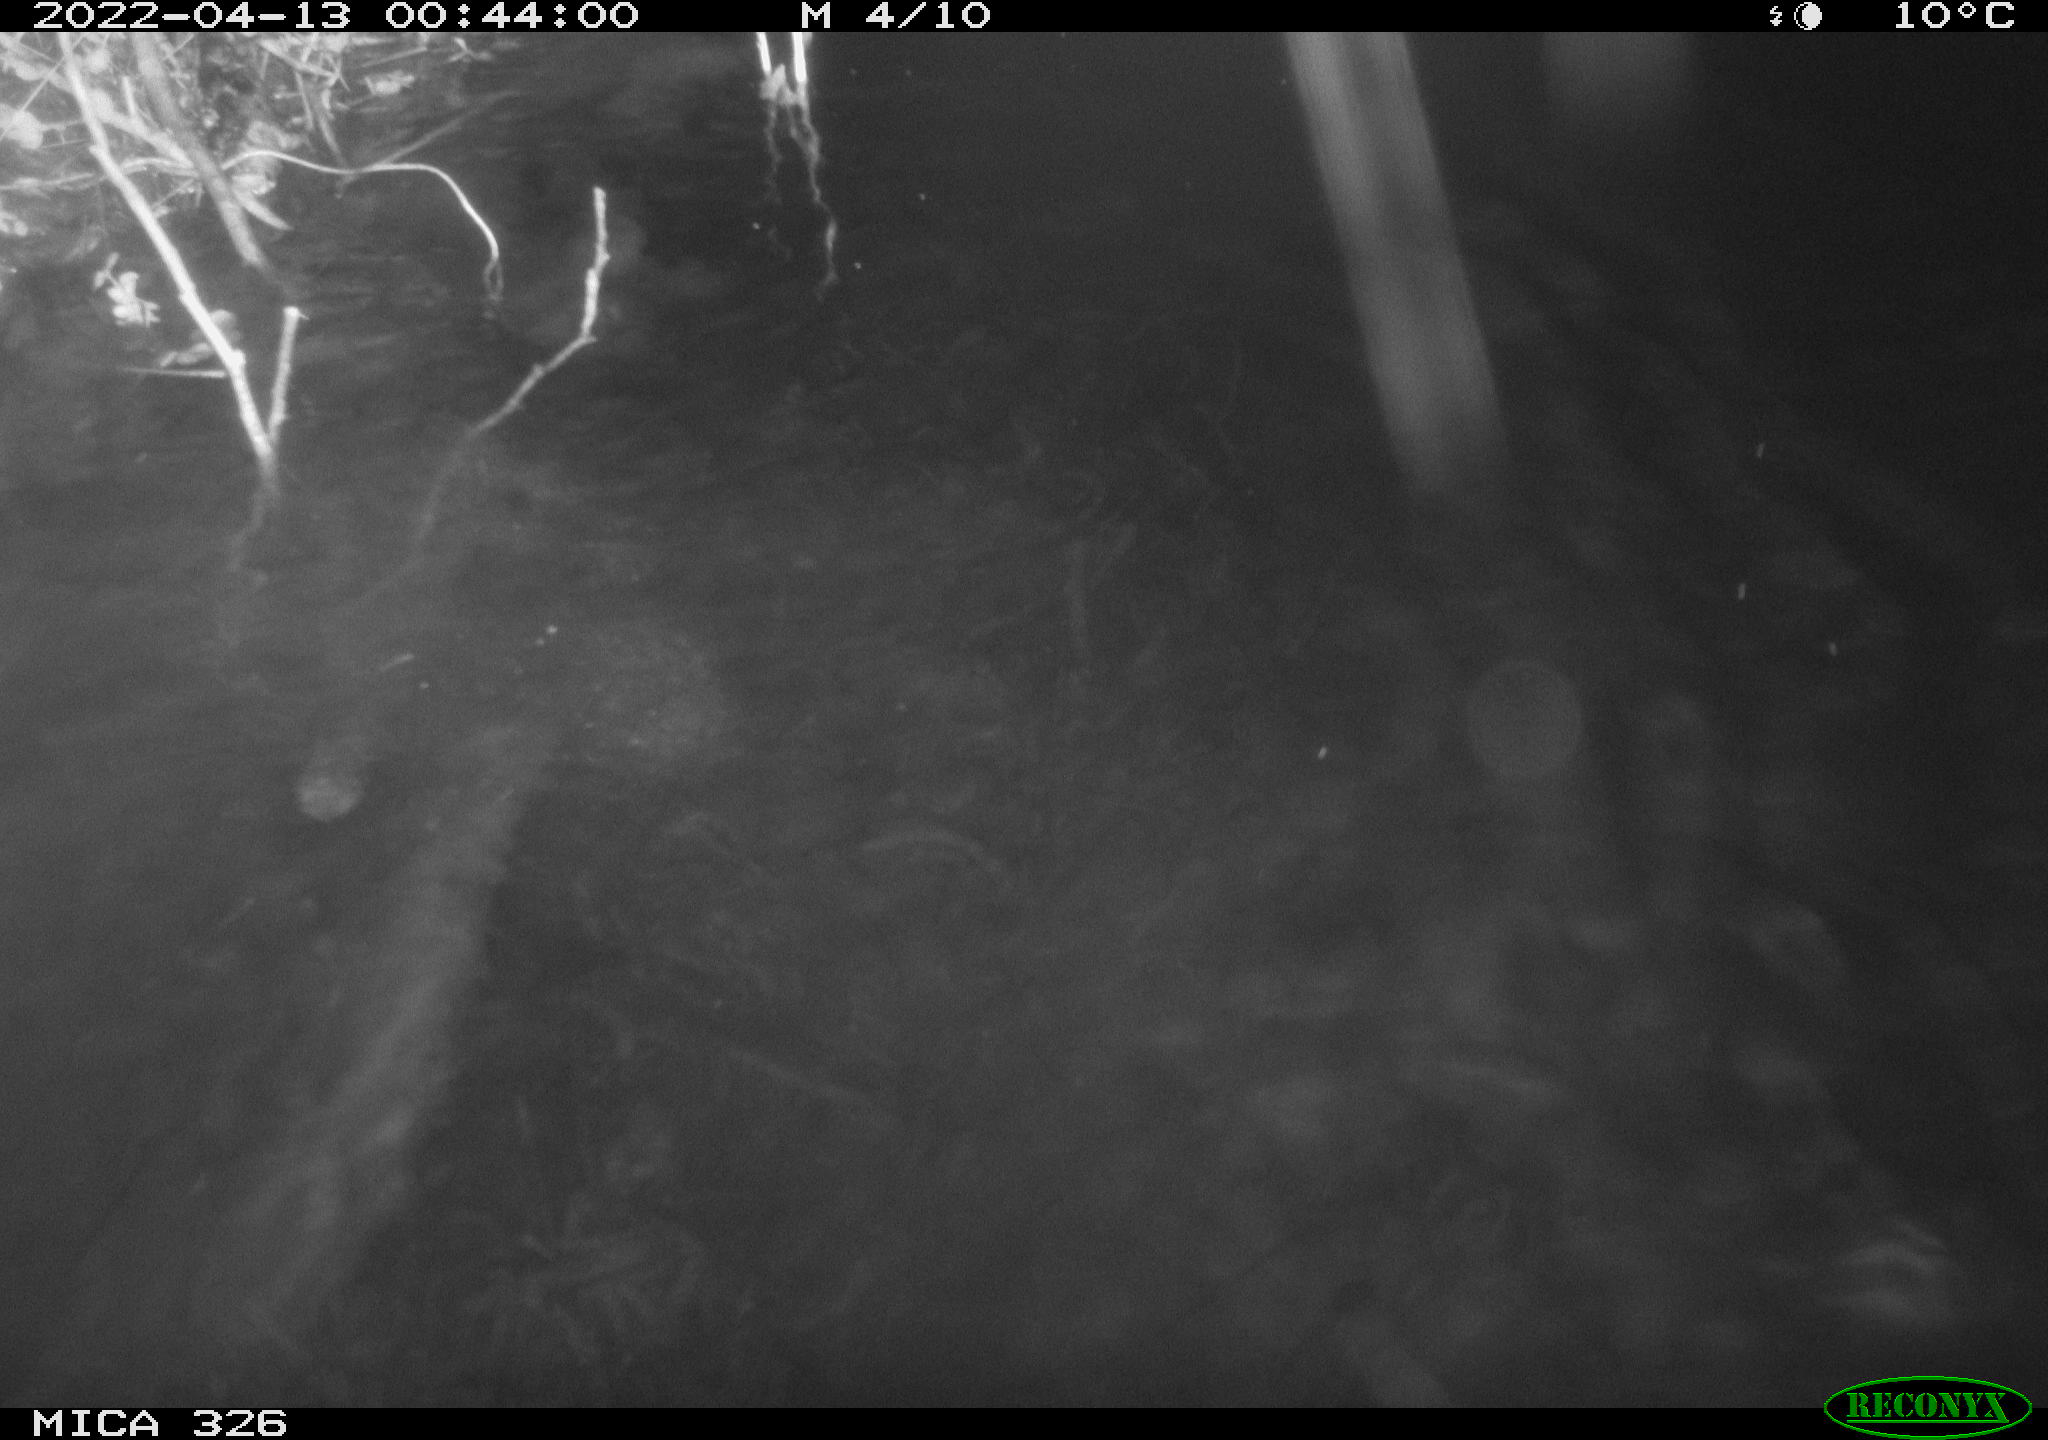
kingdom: Animalia
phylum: Chordata
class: Mammalia
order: Rodentia
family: Muridae
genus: Rattus
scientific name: Rattus norvegicus
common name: Brown rat
